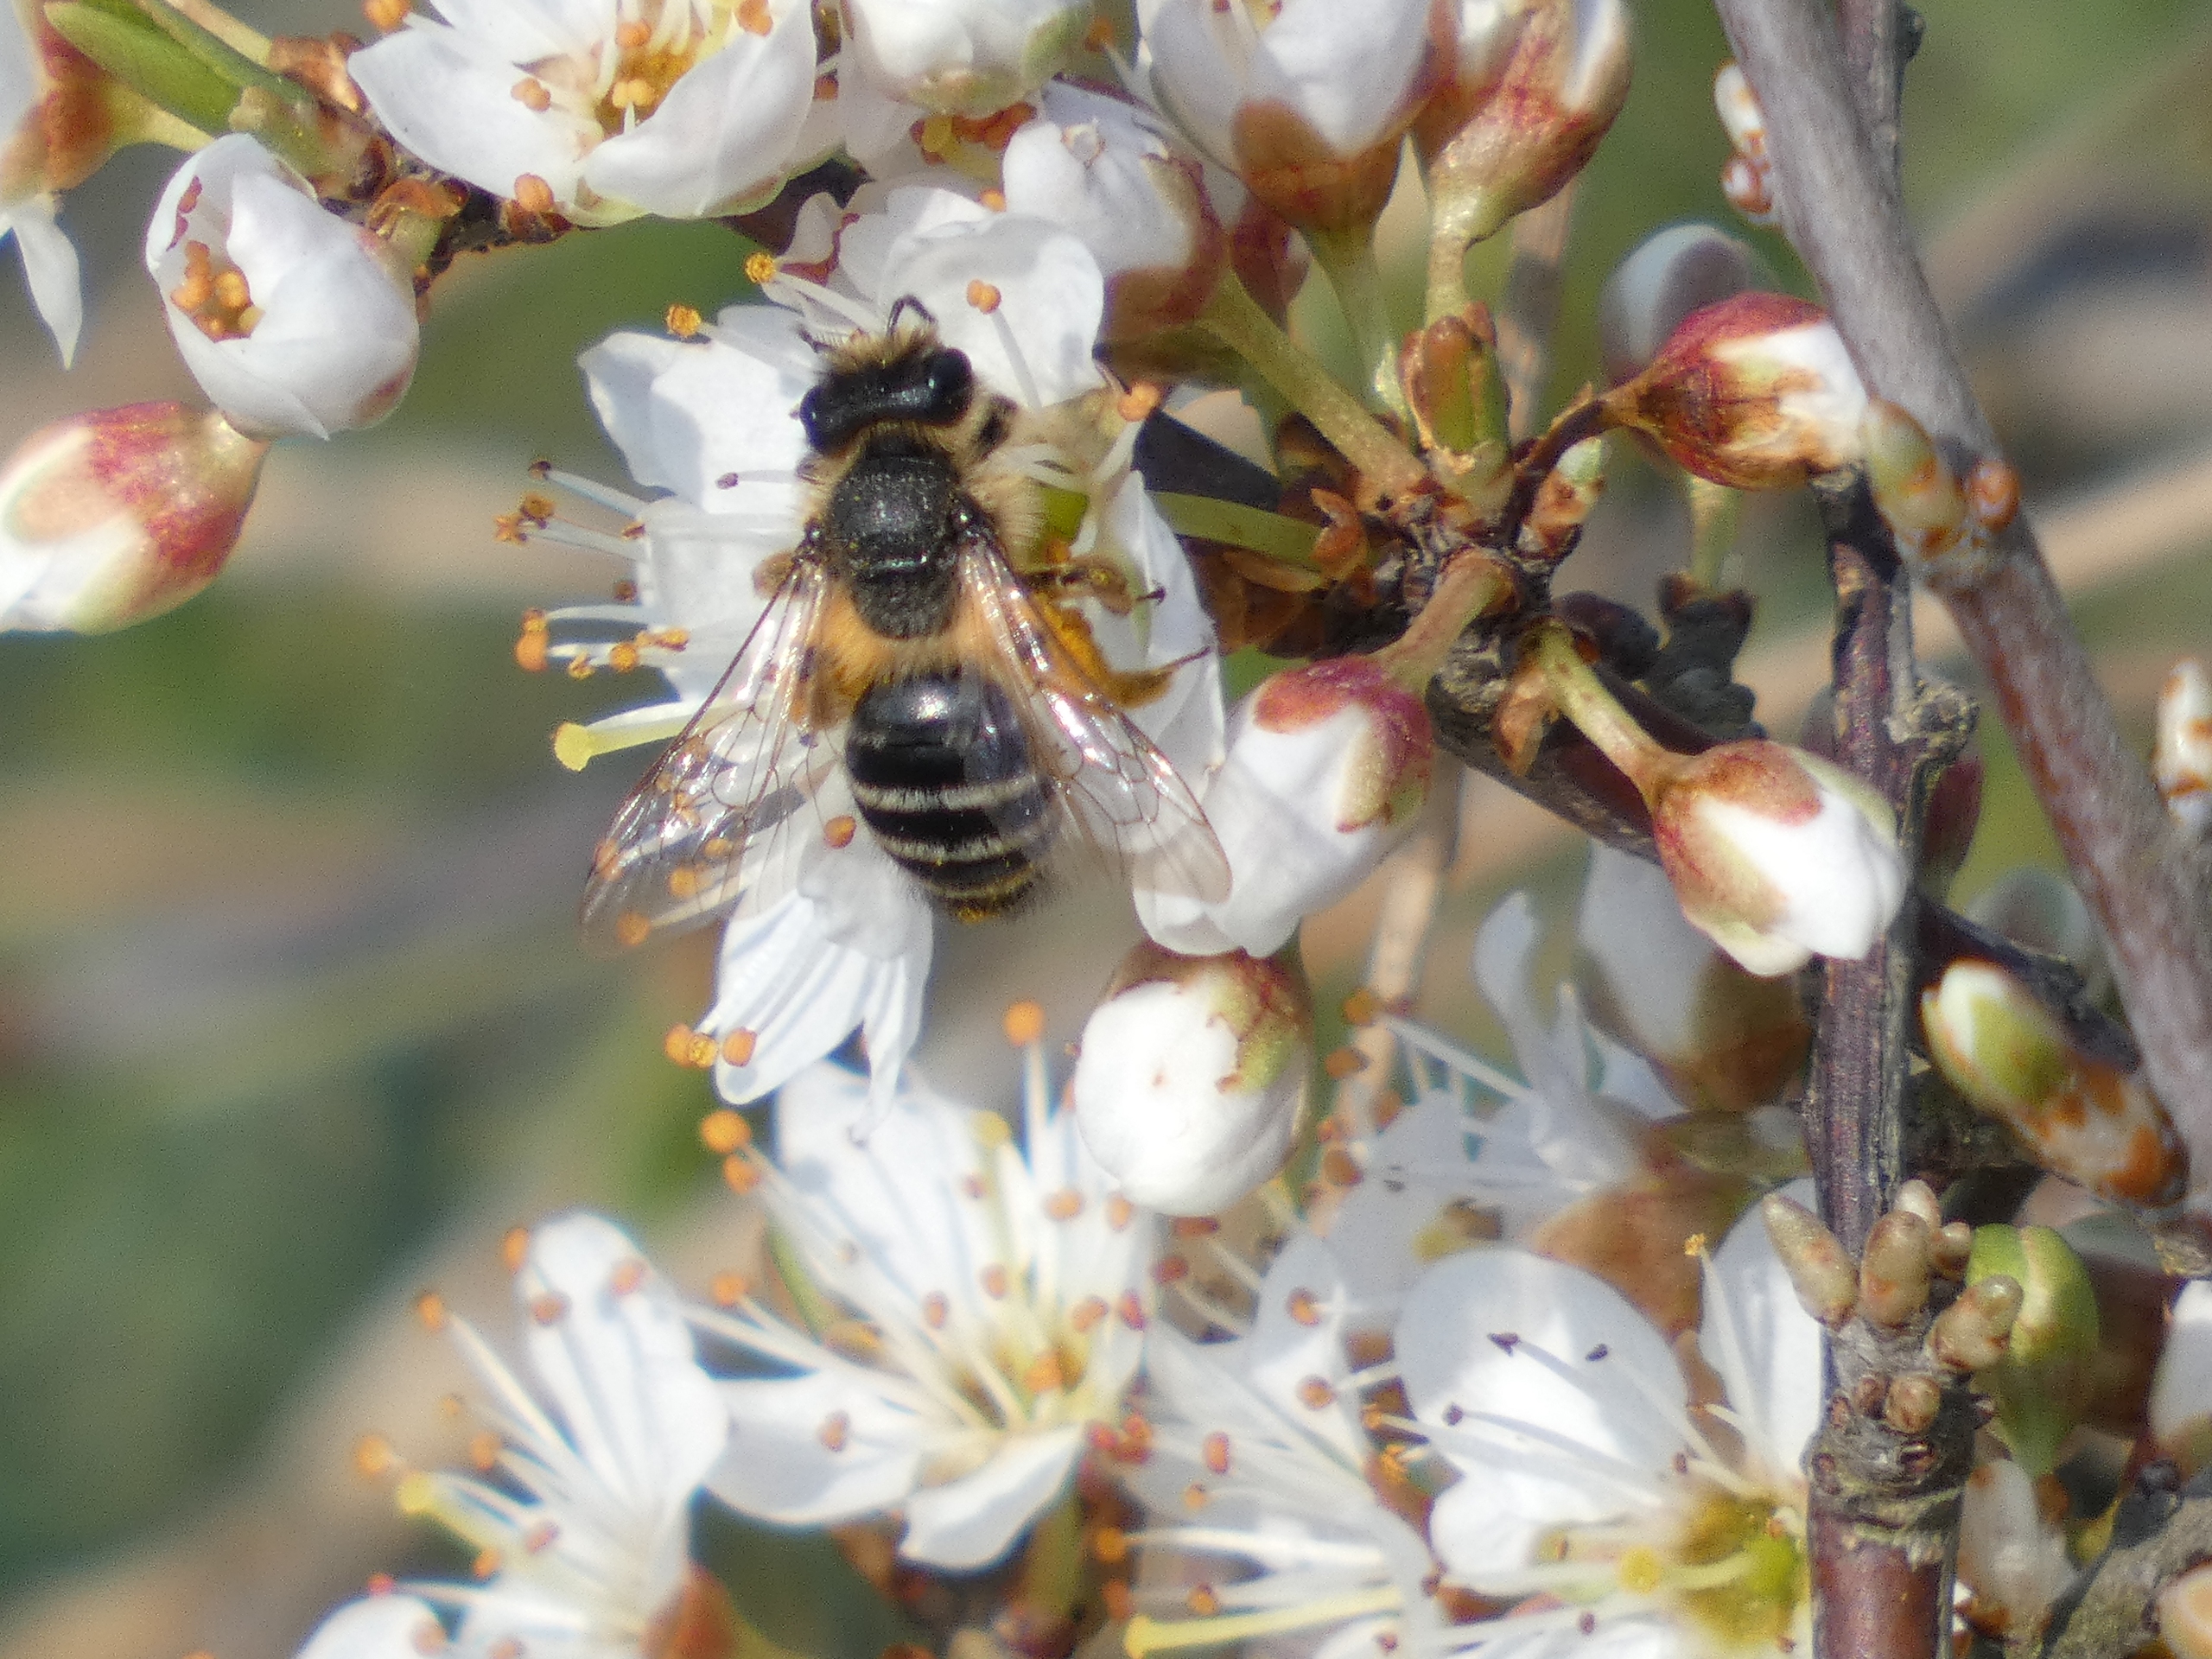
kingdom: Animalia
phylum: Arthropoda
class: Insecta
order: Hymenoptera
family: Andrenidae
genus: Andrena
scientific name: Andrena flavipes
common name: Gulbåndet jordbi
